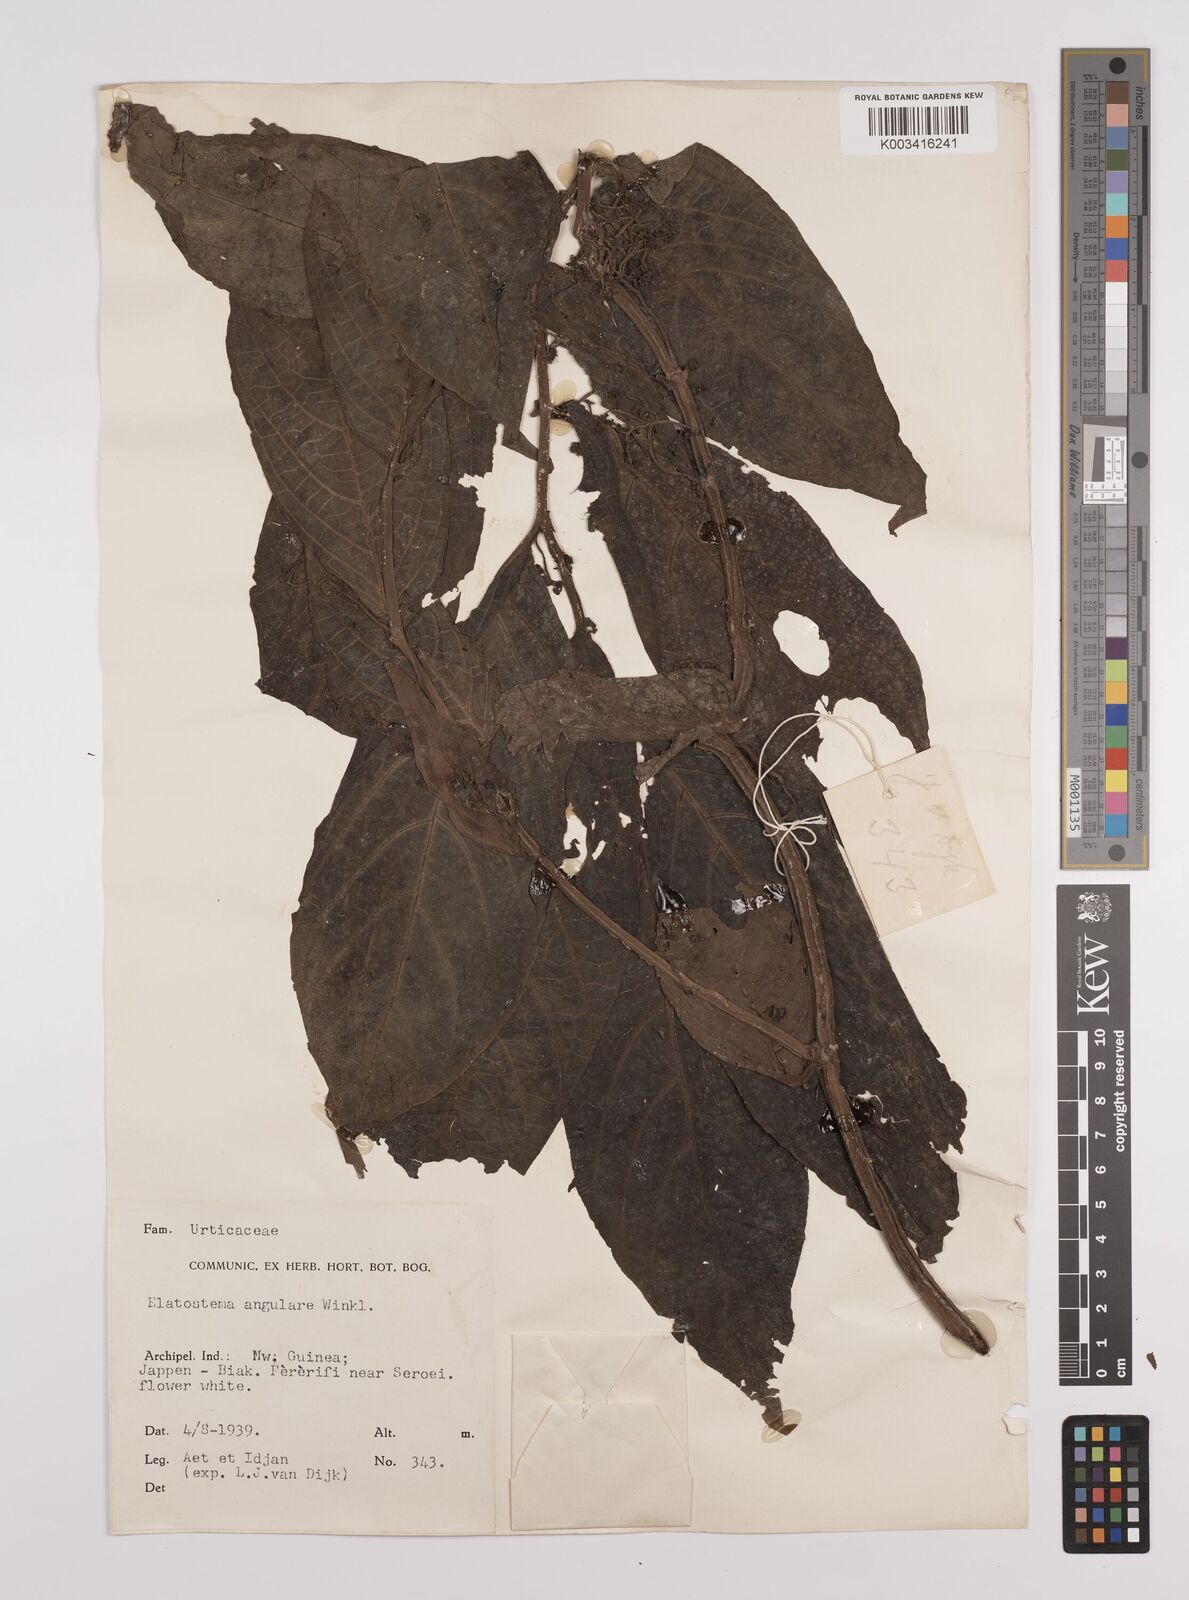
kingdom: Plantae
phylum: Tracheophyta
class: Magnoliopsida
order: Rosales
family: Urticaceae
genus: Elatostema
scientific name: Elatostema
